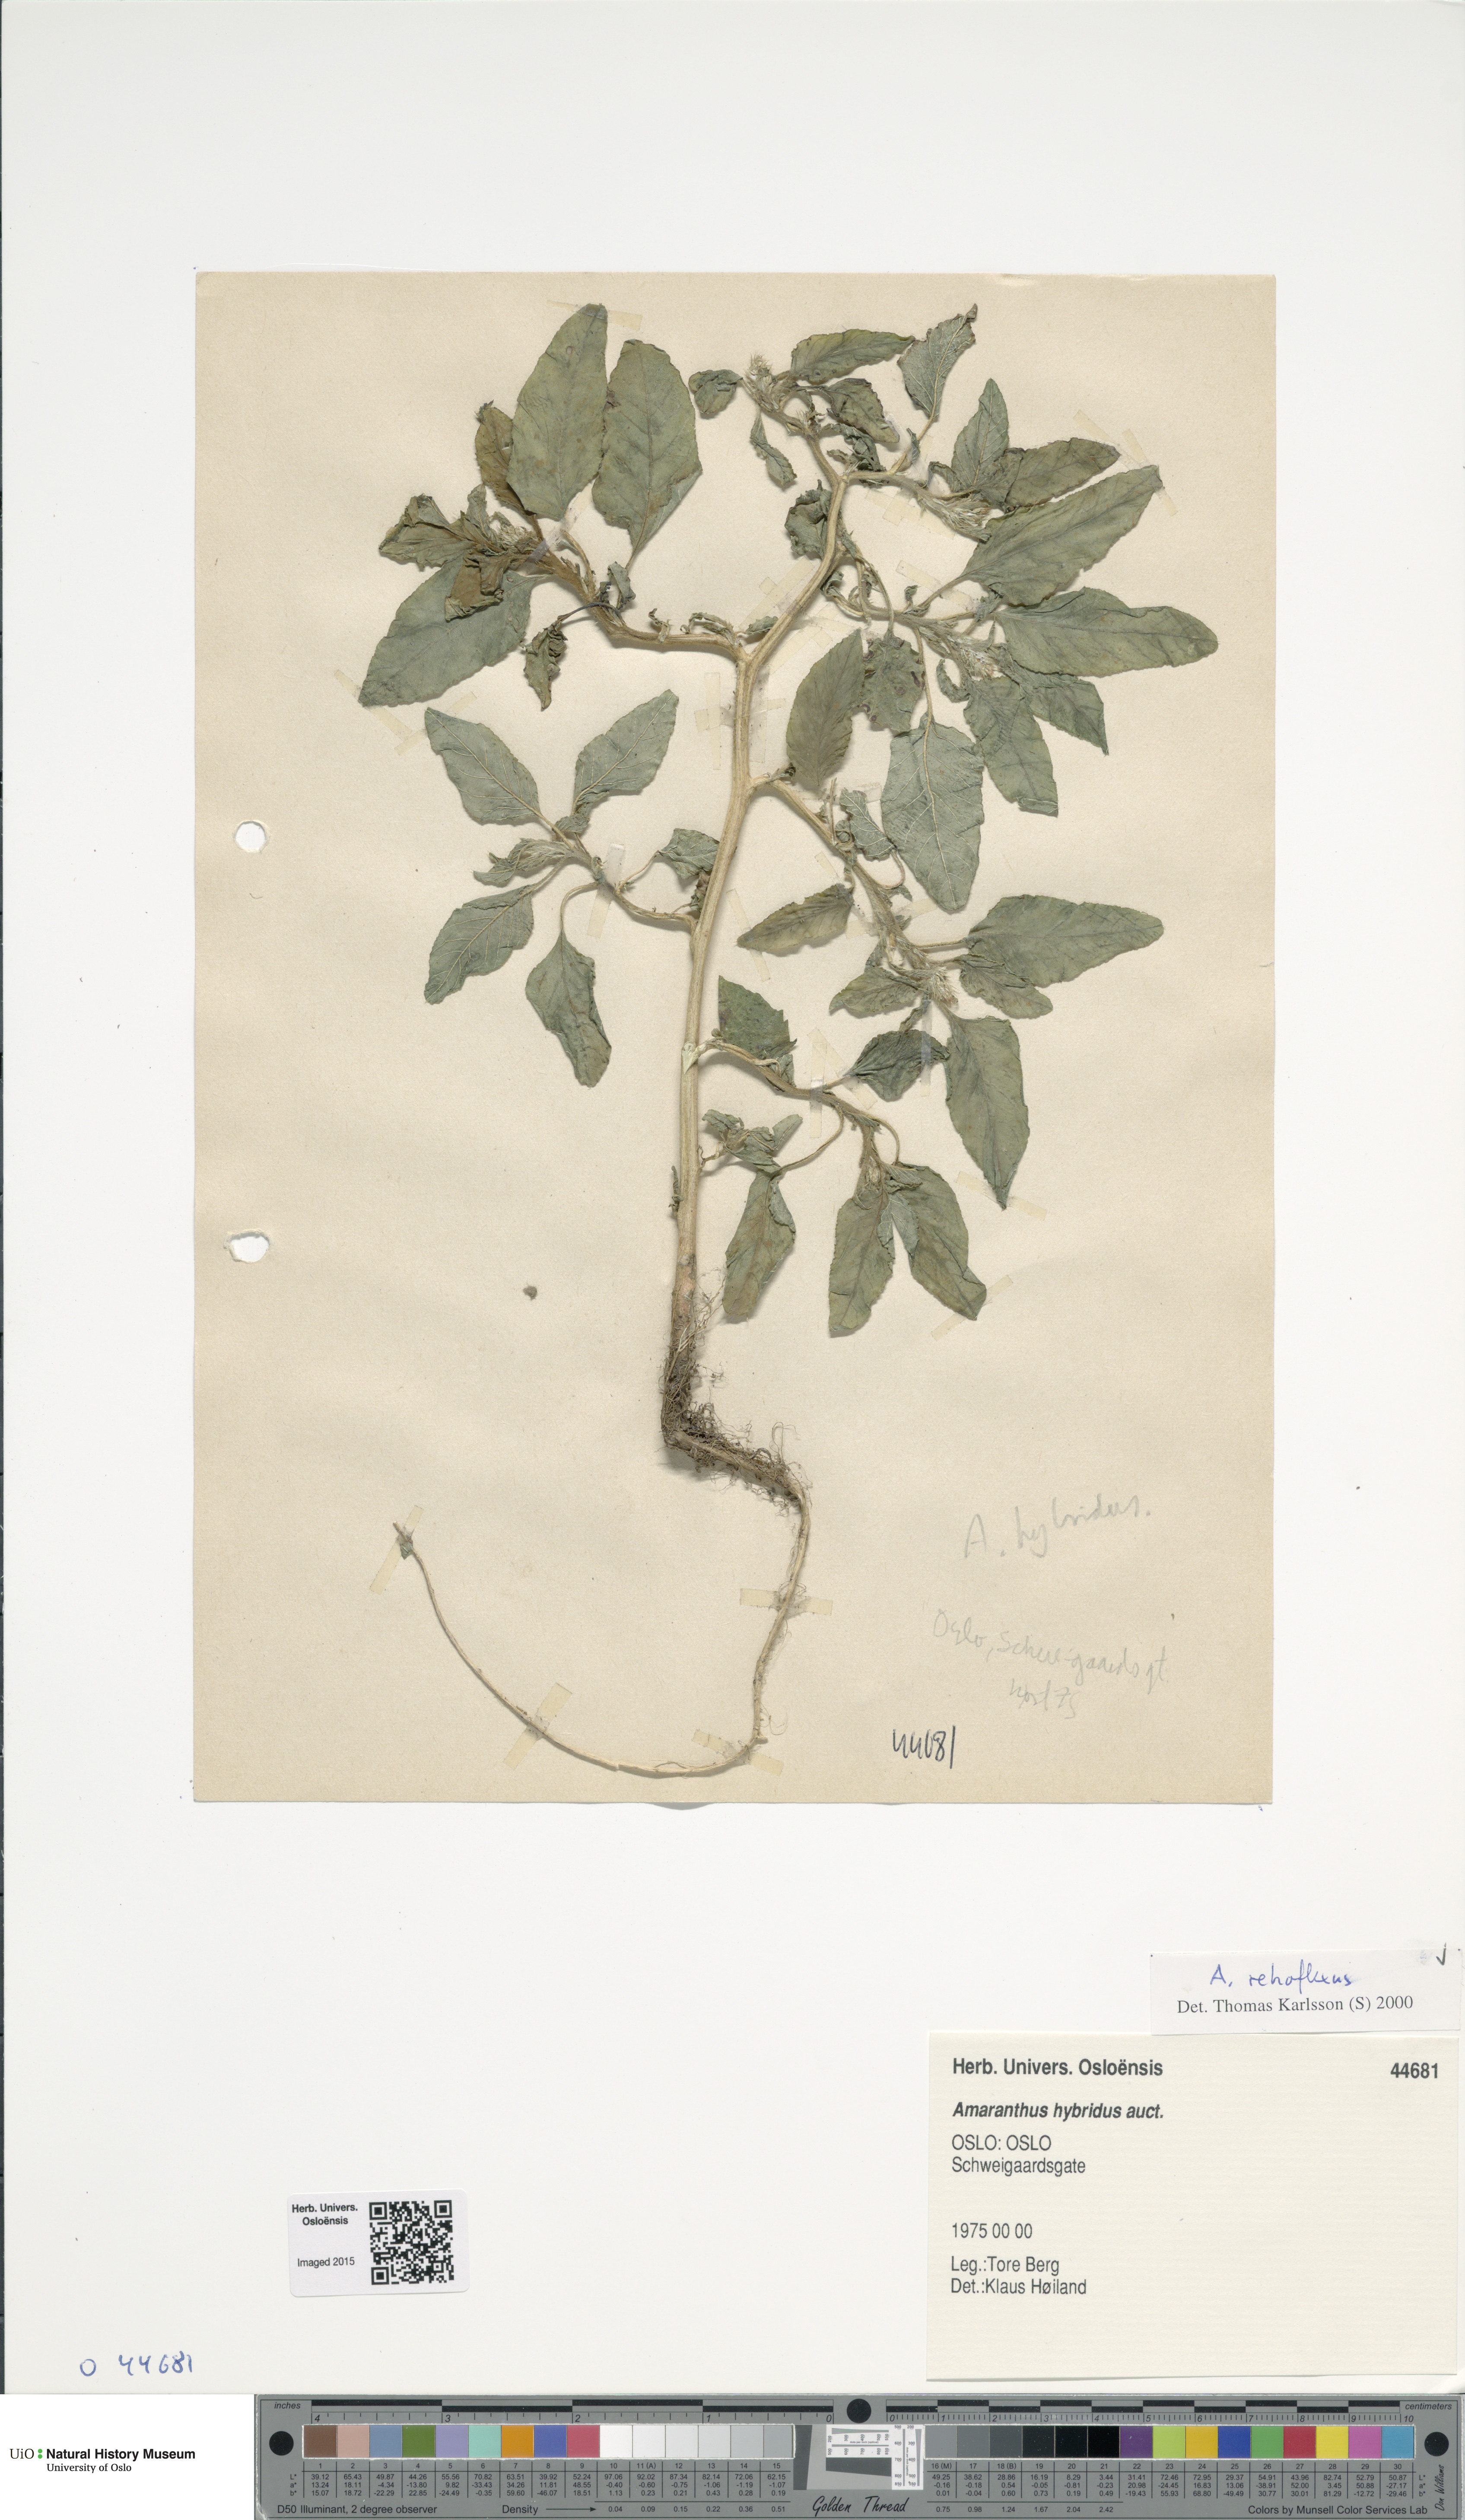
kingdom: Plantae
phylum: Tracheophyta
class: Magnoliopsida
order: Caryophyllales
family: Amaranthaceae
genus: Amaranthus
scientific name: Amaranthus retroflexus
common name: Redroot amaranth
